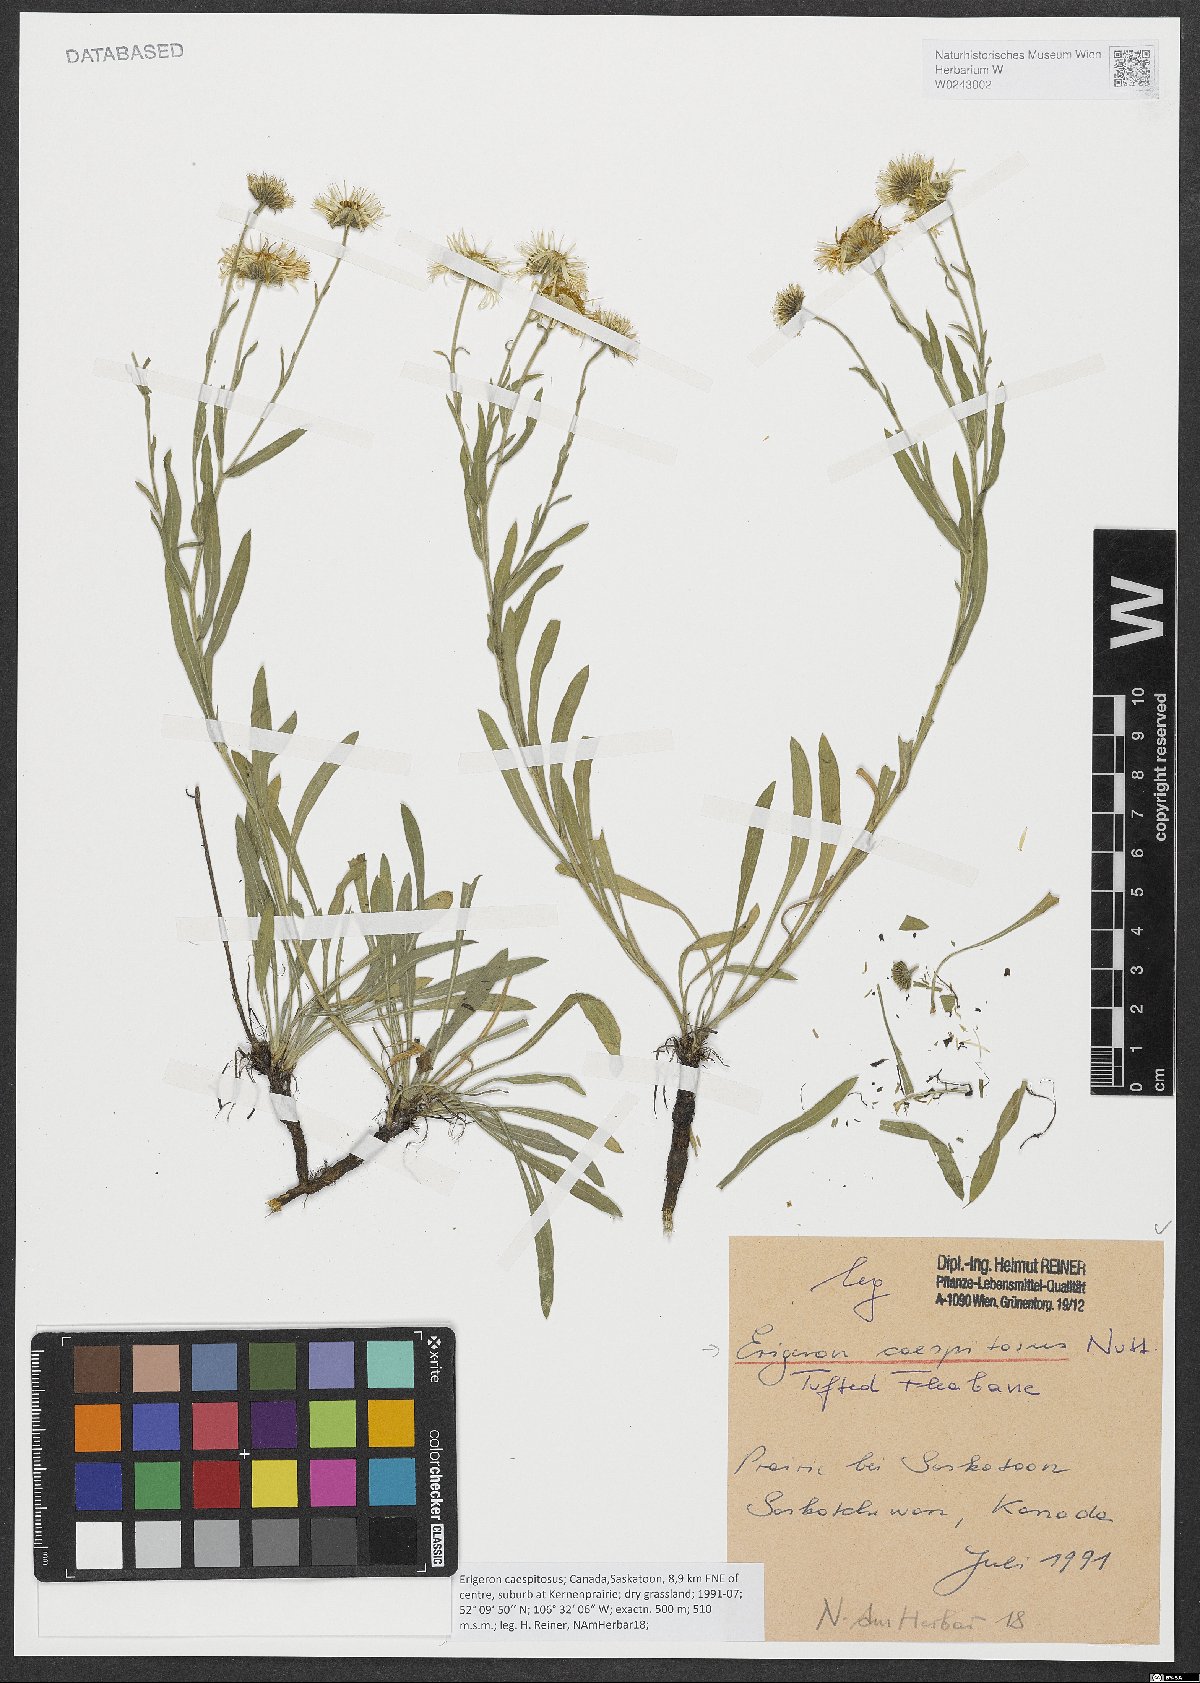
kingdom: Plantae
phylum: Tracheophyta
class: Magnoliopsida
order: Asterales
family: Asteraceae
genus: Erigeron
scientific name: Erigeron caespitosus
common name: Tufted fleabane
